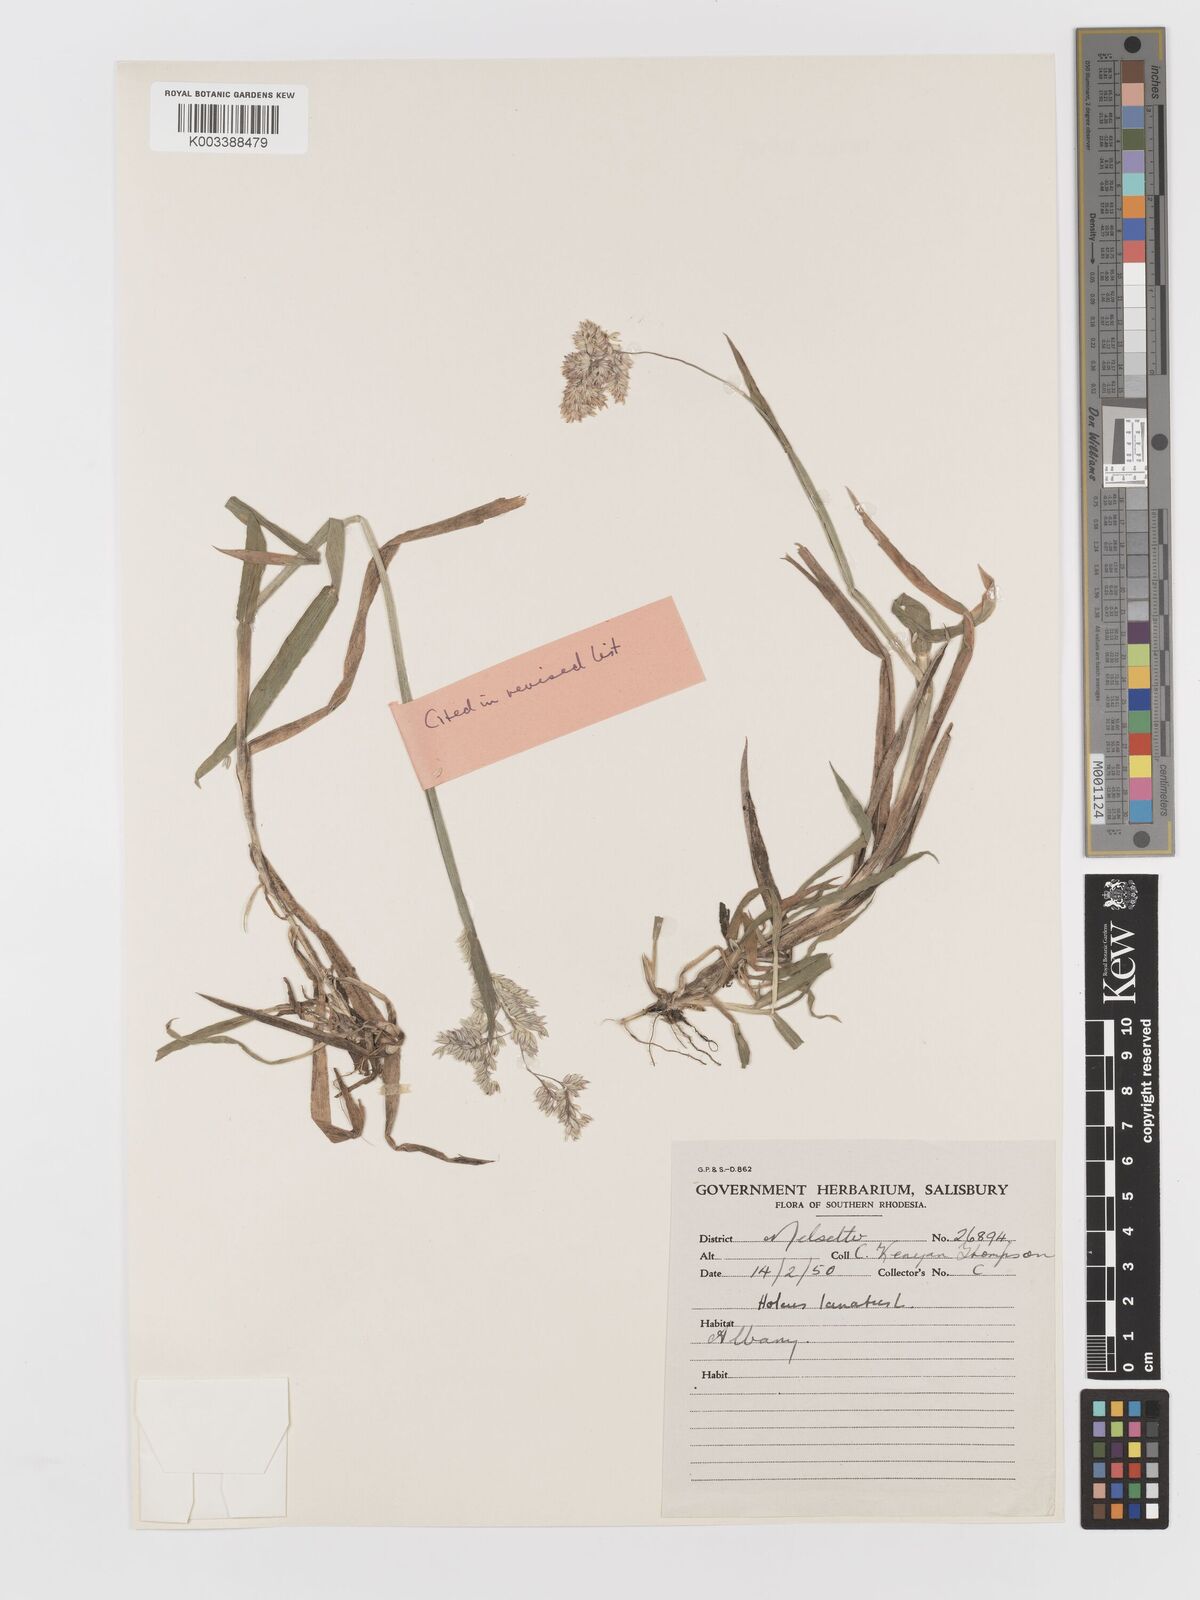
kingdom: Plantae
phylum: Tracheophyta
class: Liliopsida
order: Poales
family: Poaceae
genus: Holcus
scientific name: Holcus lanatus
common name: Yorkshire-fog
